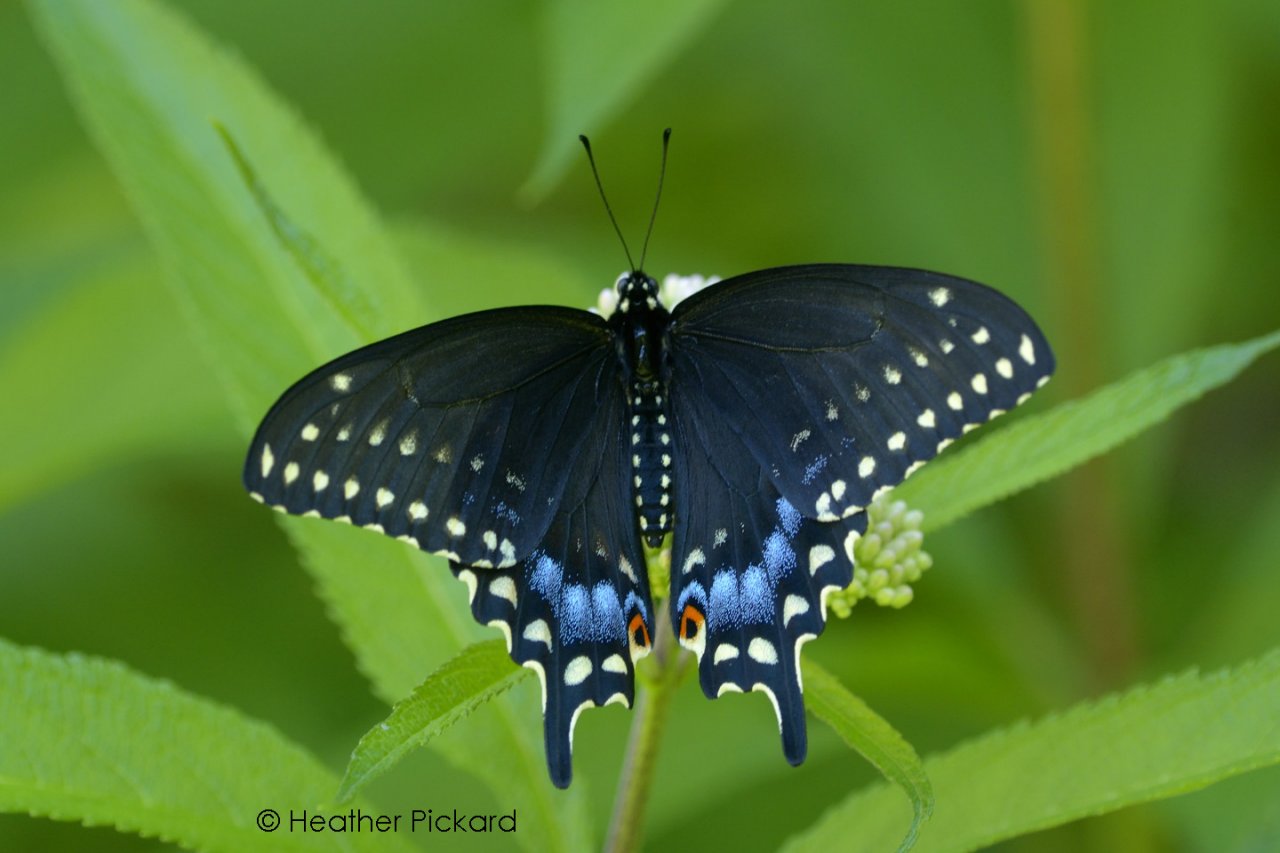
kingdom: Animalia
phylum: Arthropoda
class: Insecta
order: Lepidoptera
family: Papilionidae
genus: Papilio
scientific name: Papilio polyxenes
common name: Black Swallowtail
